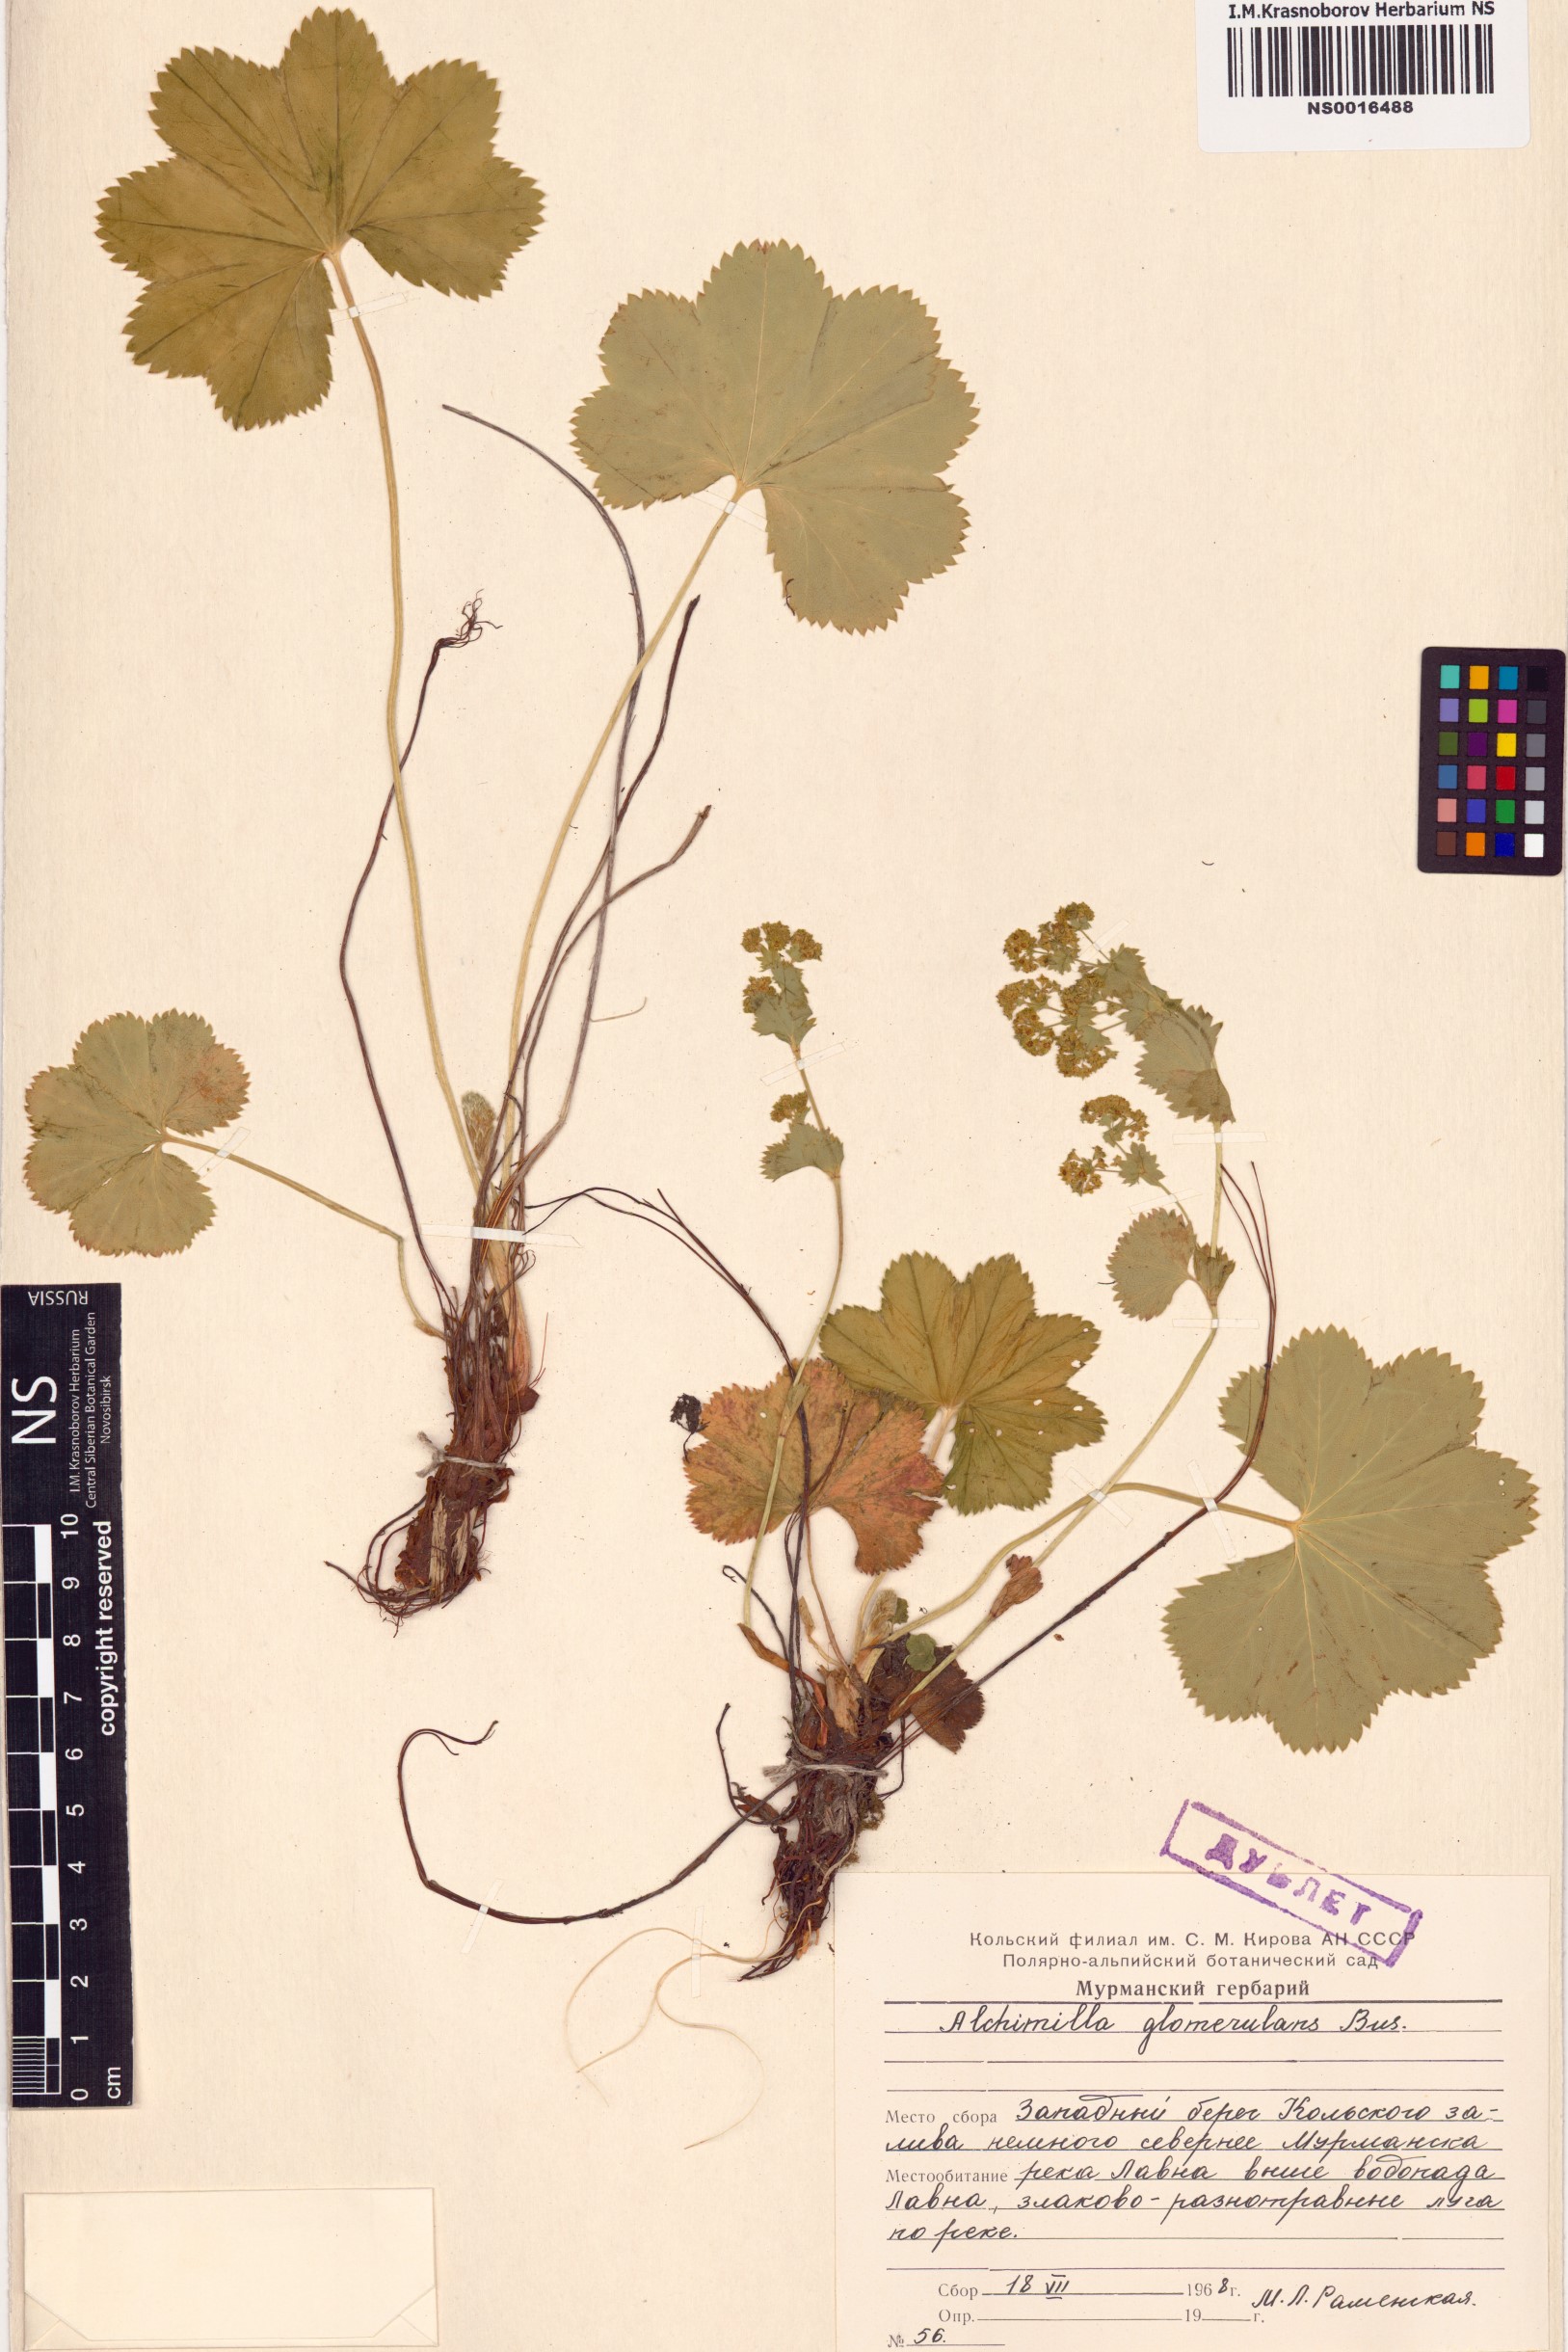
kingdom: Plantae
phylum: Tracheophyta
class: Magnoliopsida
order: Rosales
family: Rosaceae
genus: Alchemilla
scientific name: Alchemilla glomerulans
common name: Clustered lady's mantle
